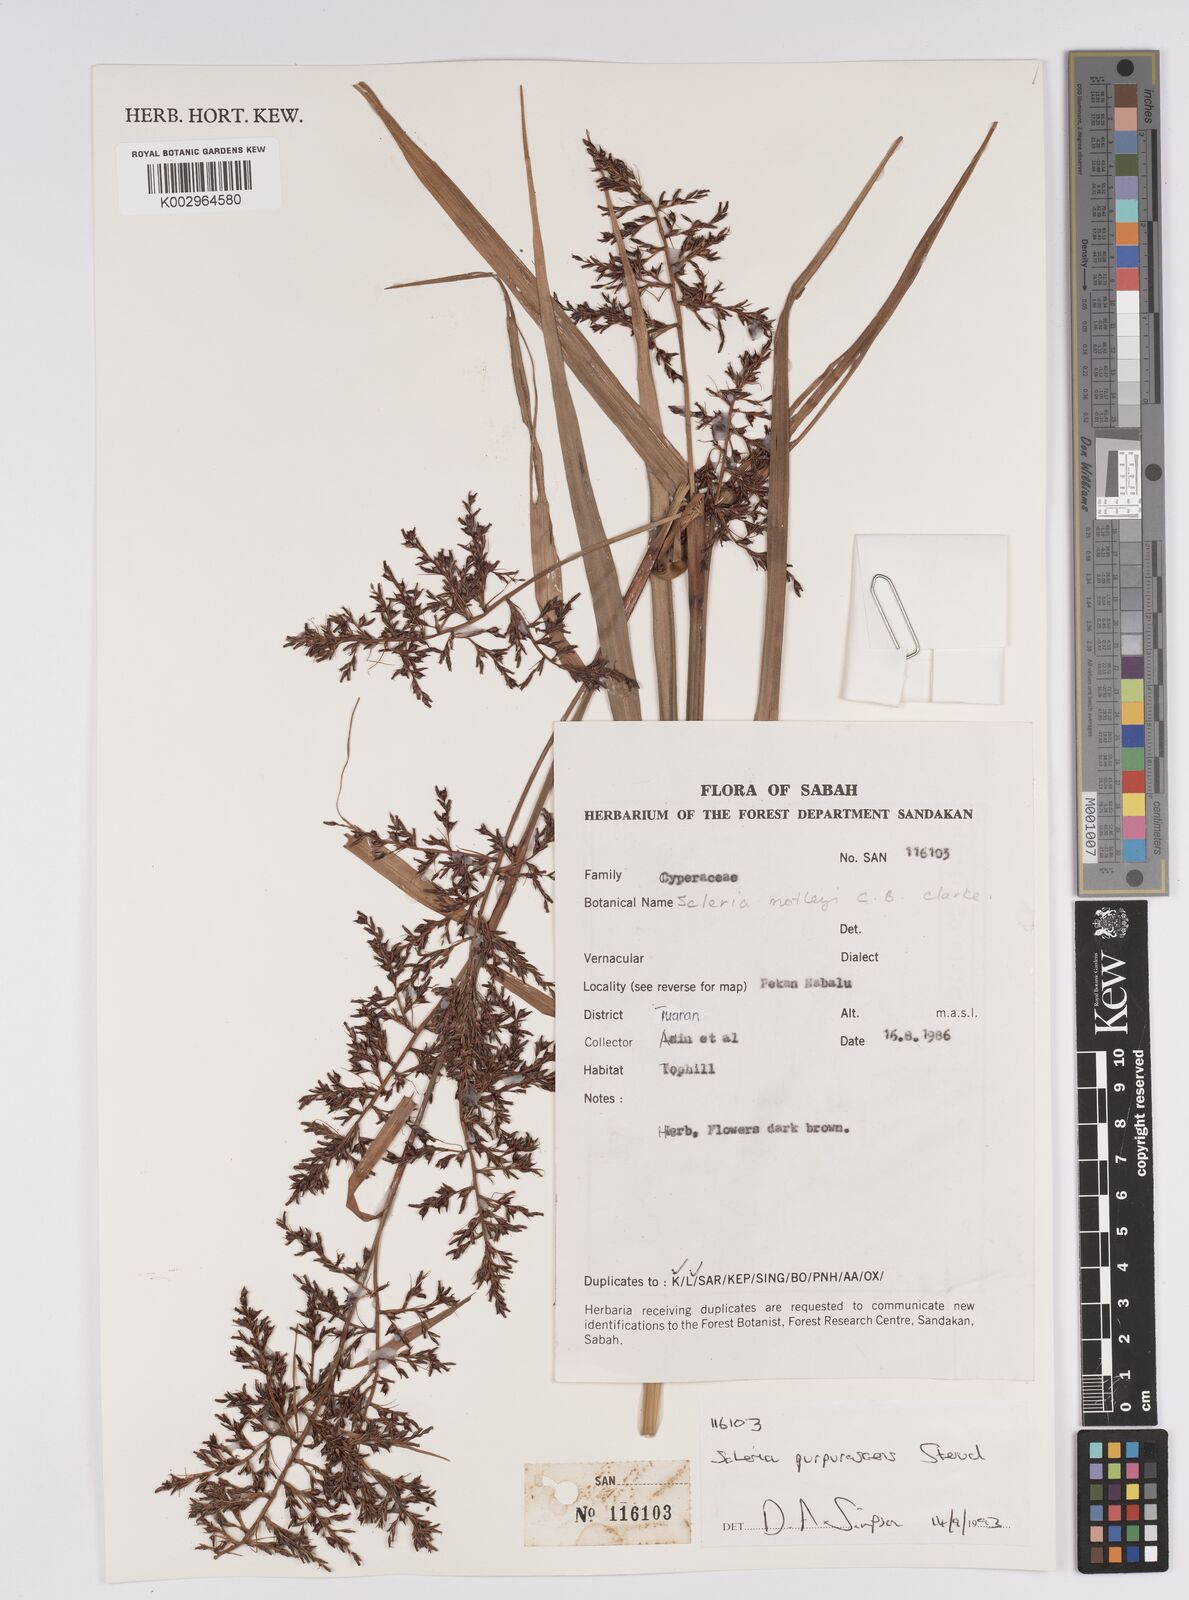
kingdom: Plantae
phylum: Tracheophyta
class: Liliopsida
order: Poales
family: Cyperaceae
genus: Scleria
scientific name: Scleria purpurascens
